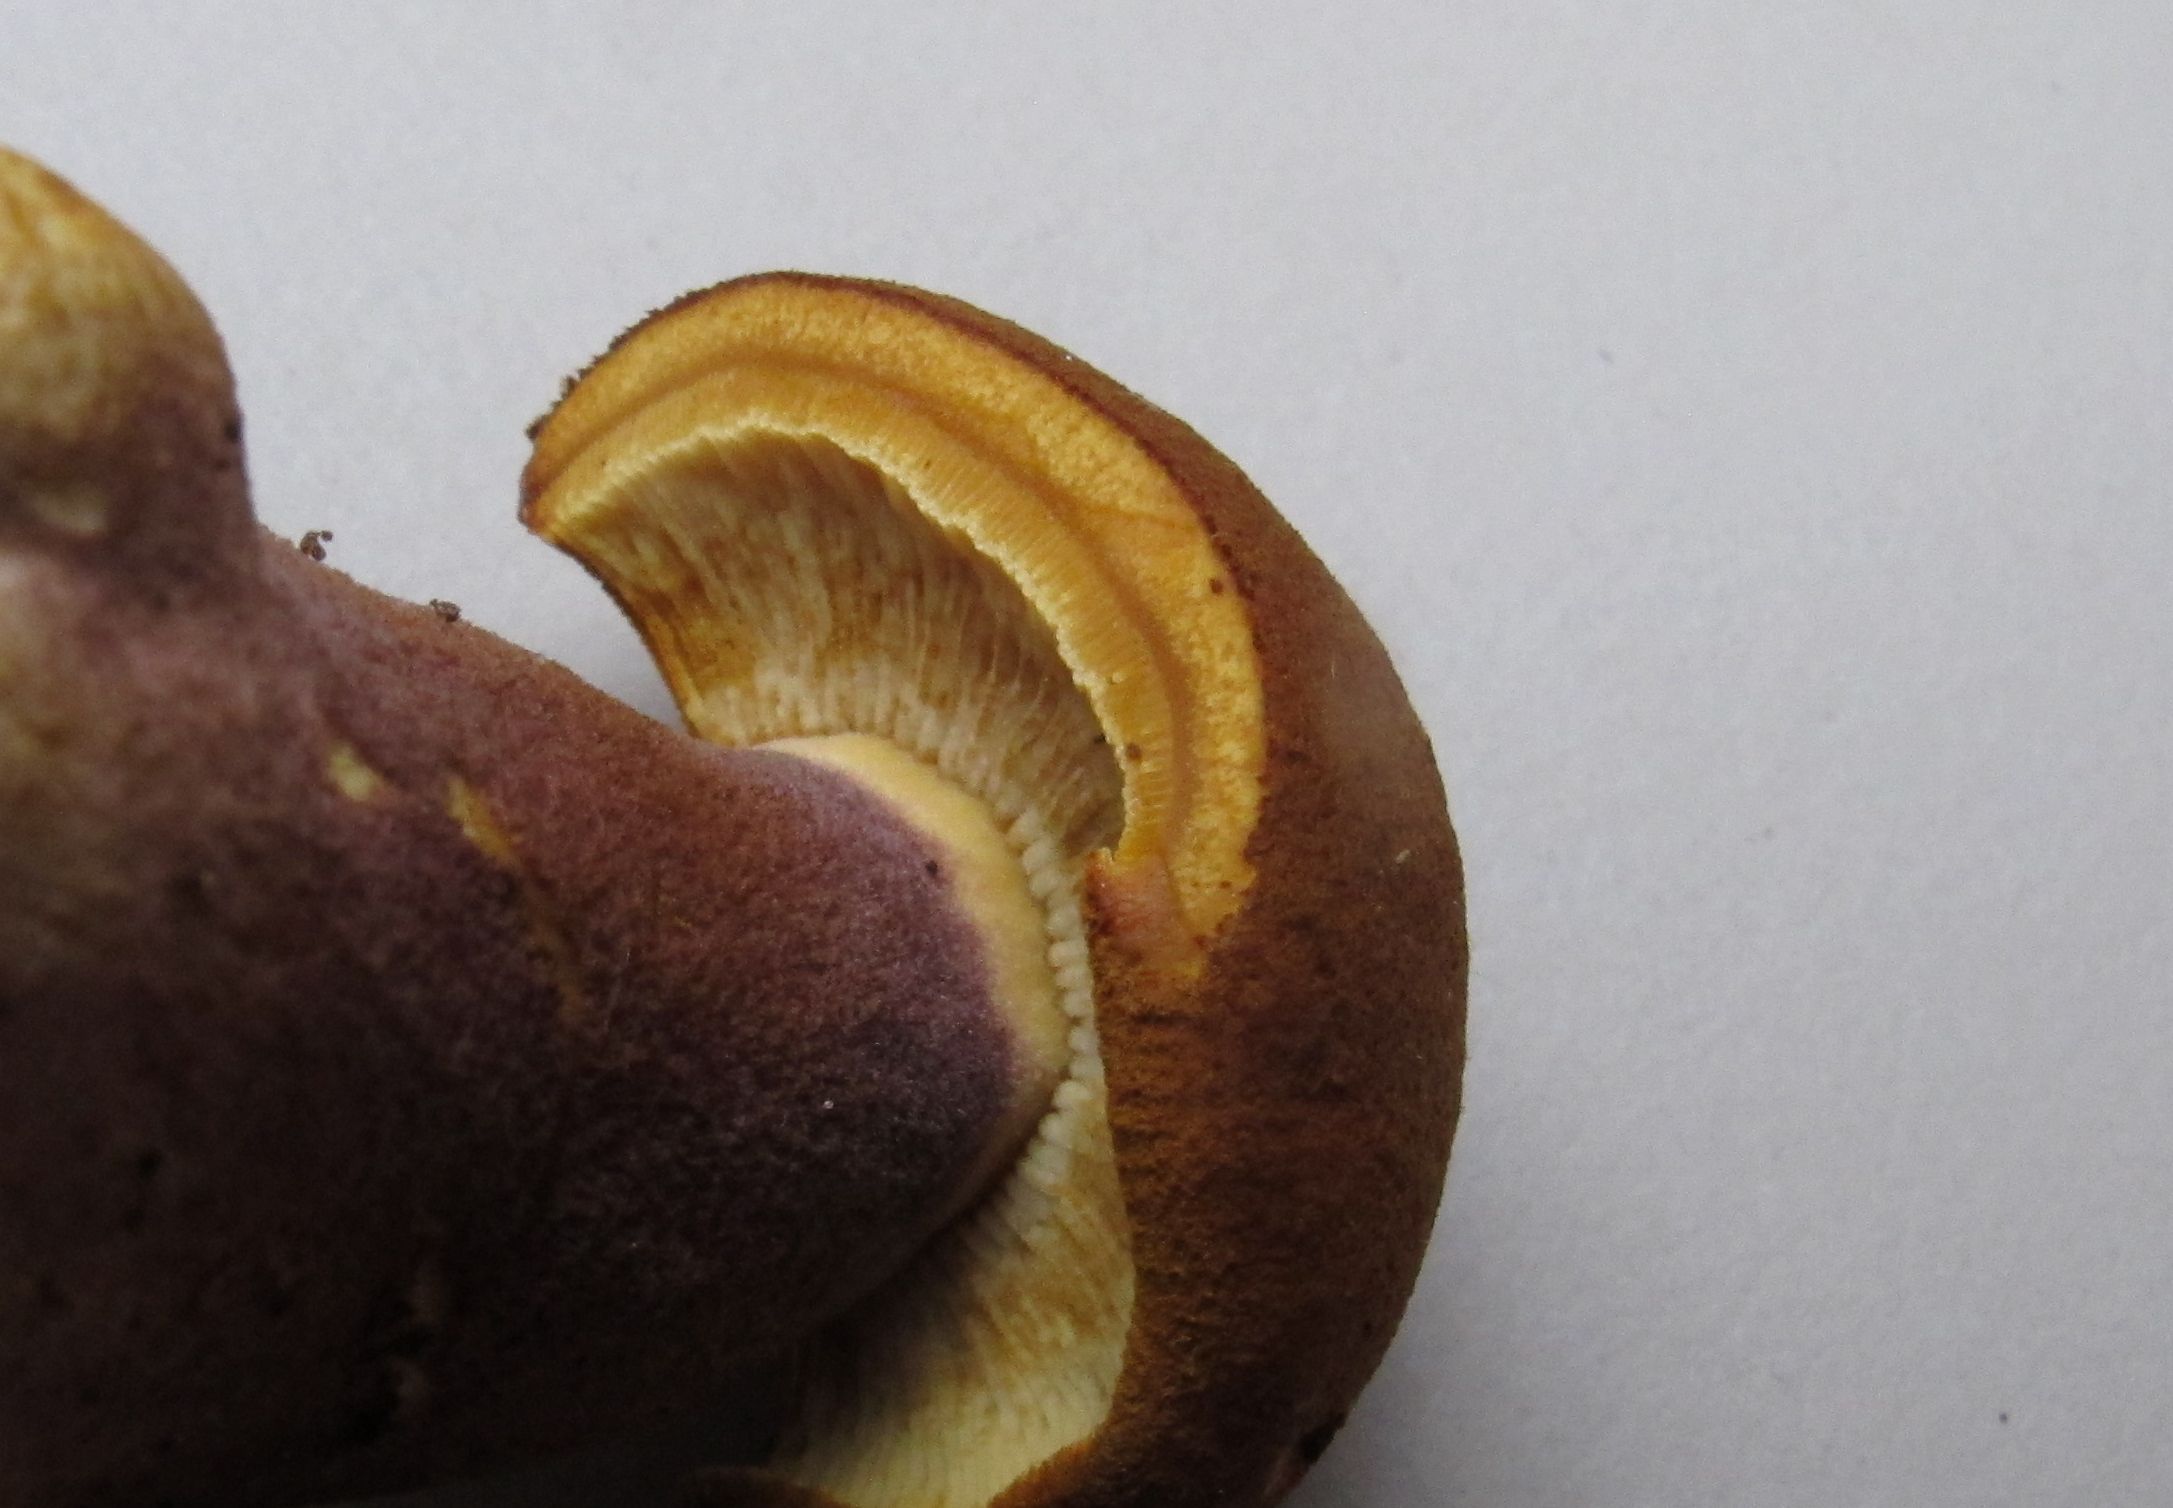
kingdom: Fungi
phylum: Basidiomycota
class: Agaricomycetes
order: Agaricales
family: Tricholomataceae
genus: Tricholomopsis
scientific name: Tricholomopsis rutilans
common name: purpur-væbnerhat
